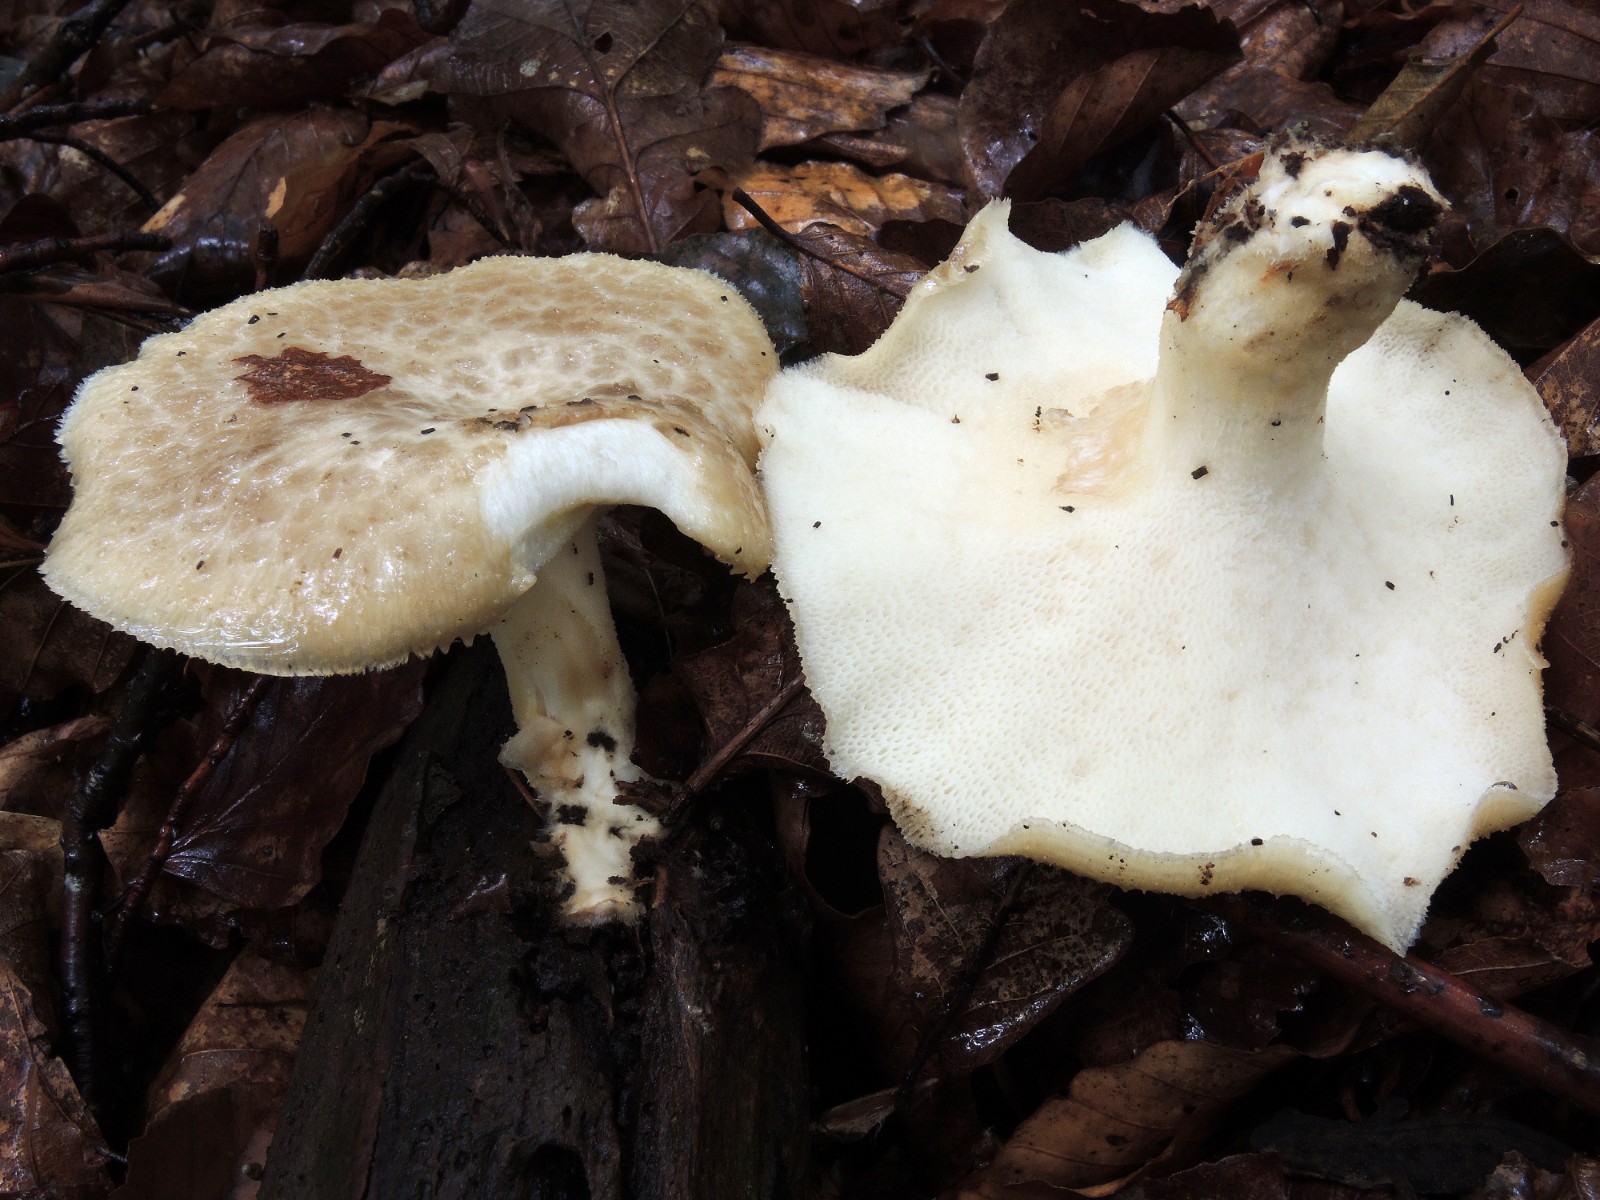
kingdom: Fungi
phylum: Basidiomycota
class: Agaricomycetes
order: Polyporales
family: Polyporaceae
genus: Polyporus
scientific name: Polyporus tuberaster
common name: knoldet stilkporesvamp
